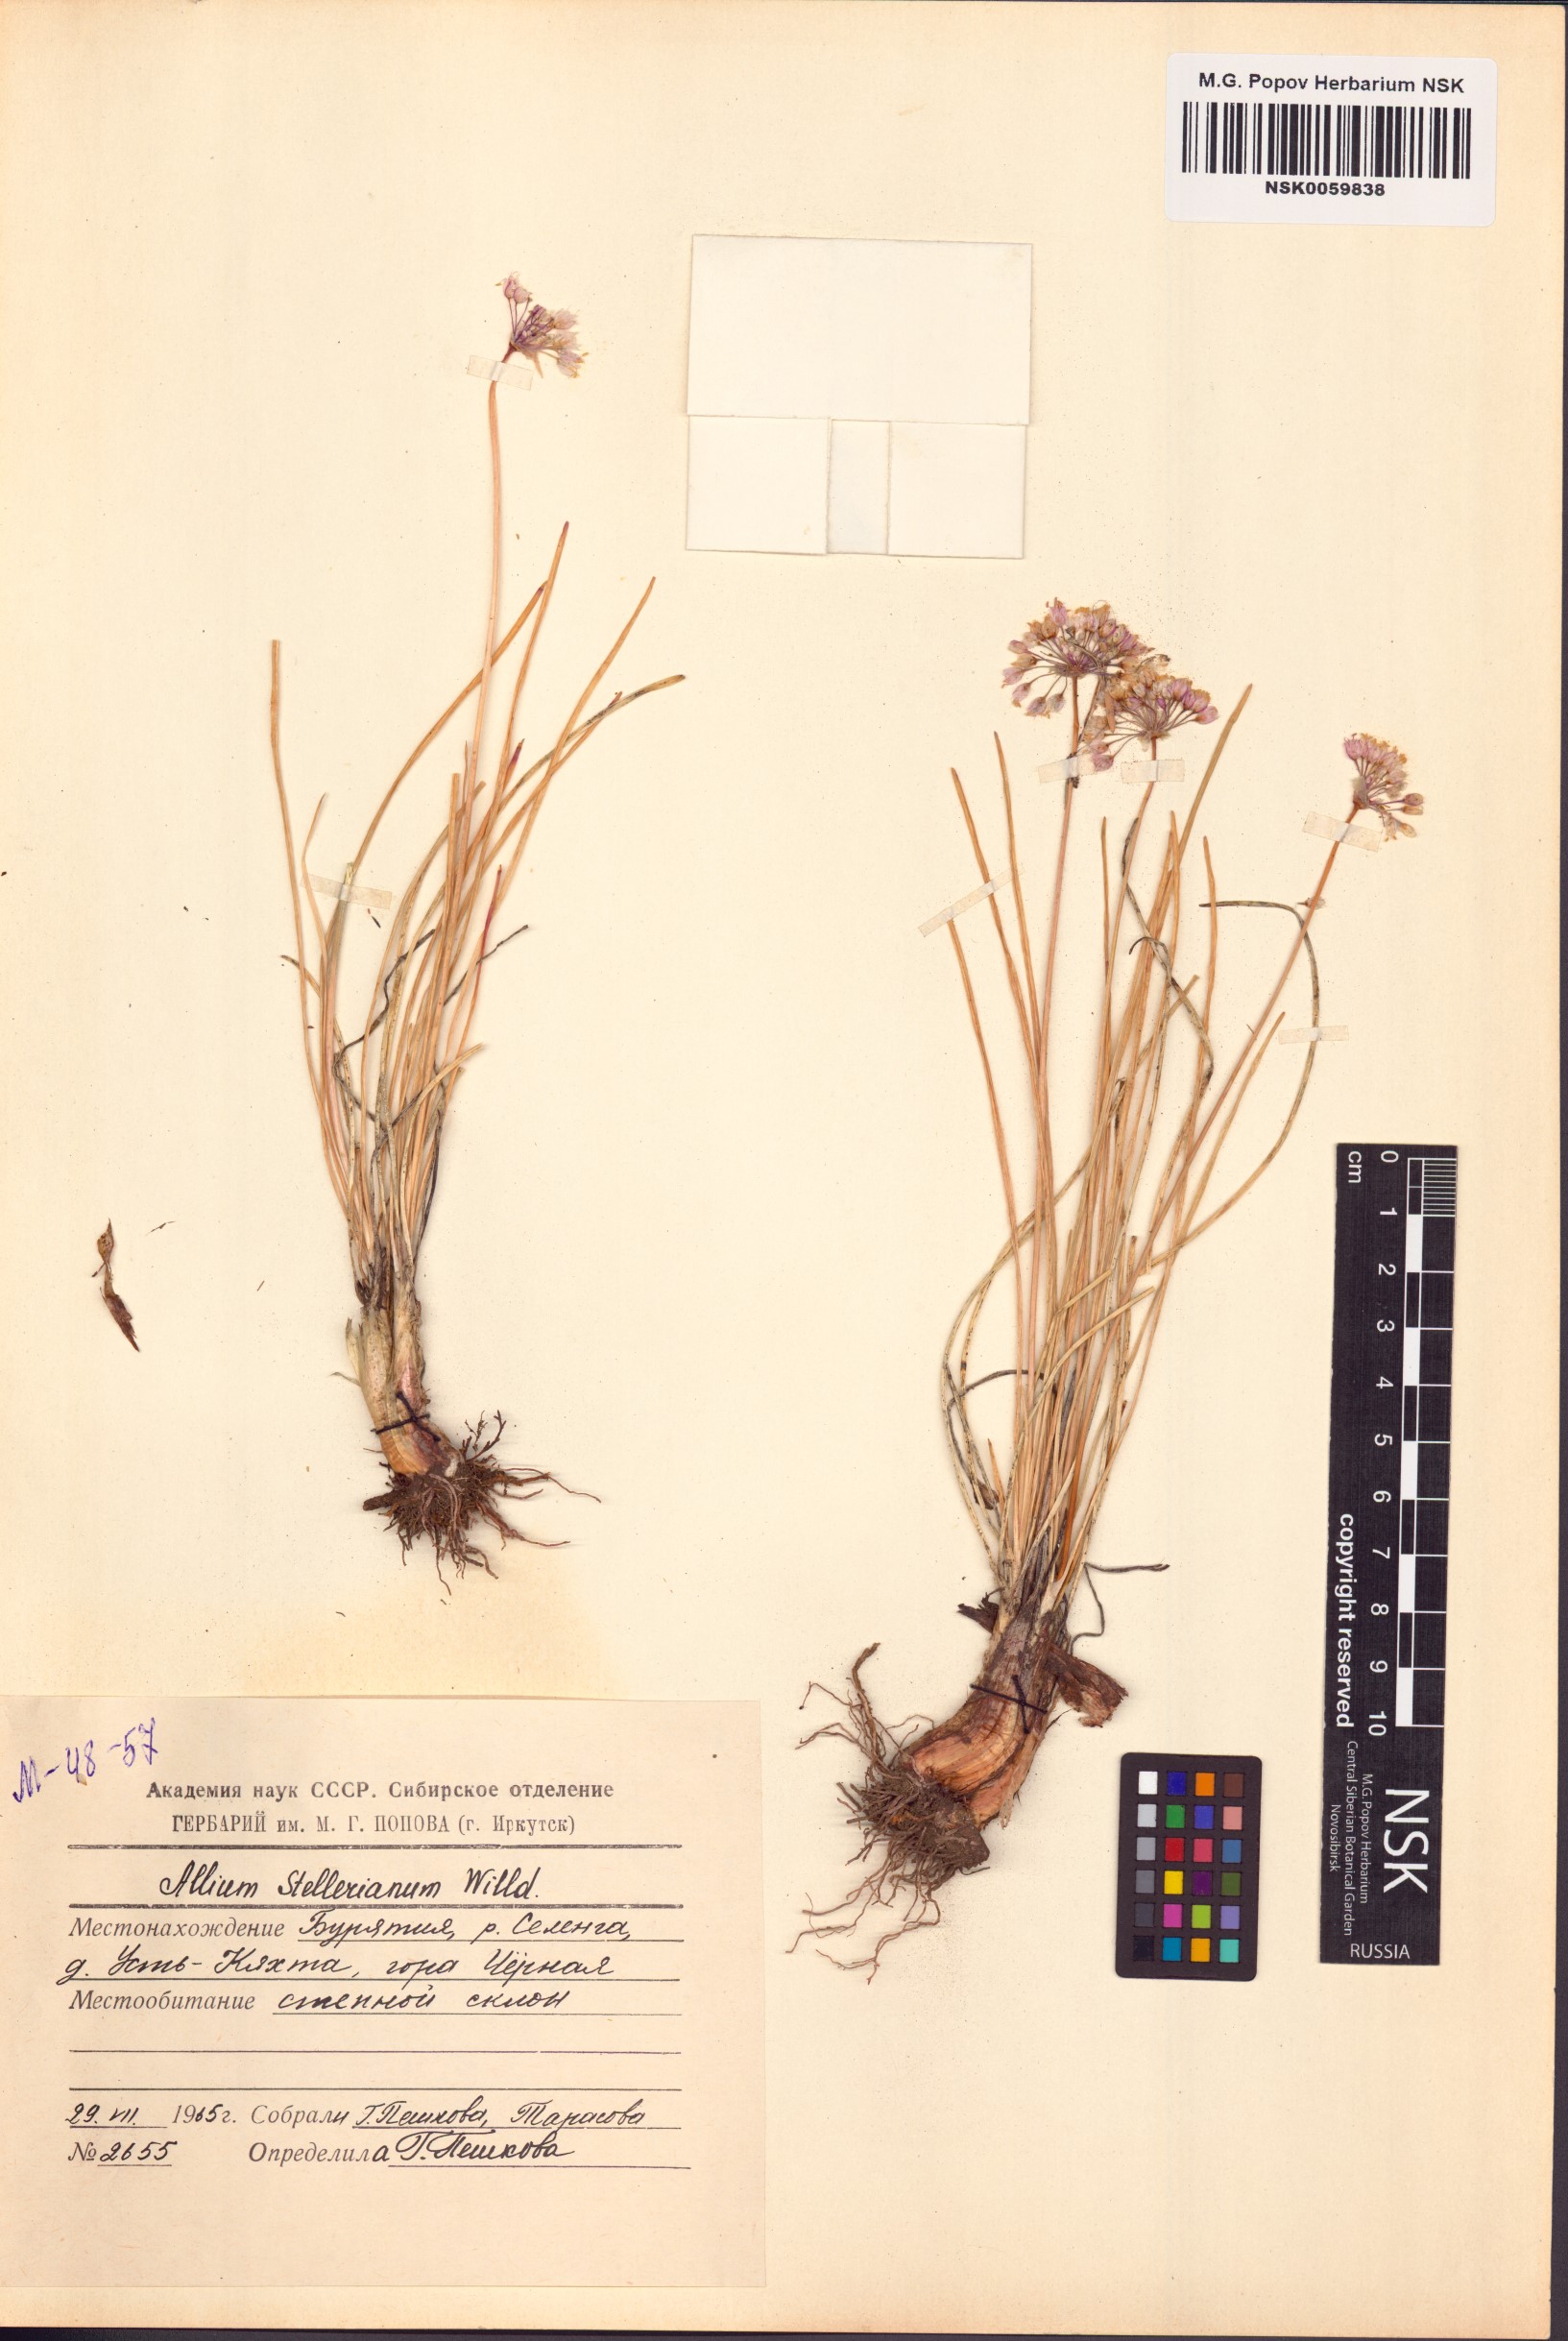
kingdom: Plantae
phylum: Tracheophyta
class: Liliopsida
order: Asparagales
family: Amaryllidaceae
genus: Allium
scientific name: Allium stellerianum
